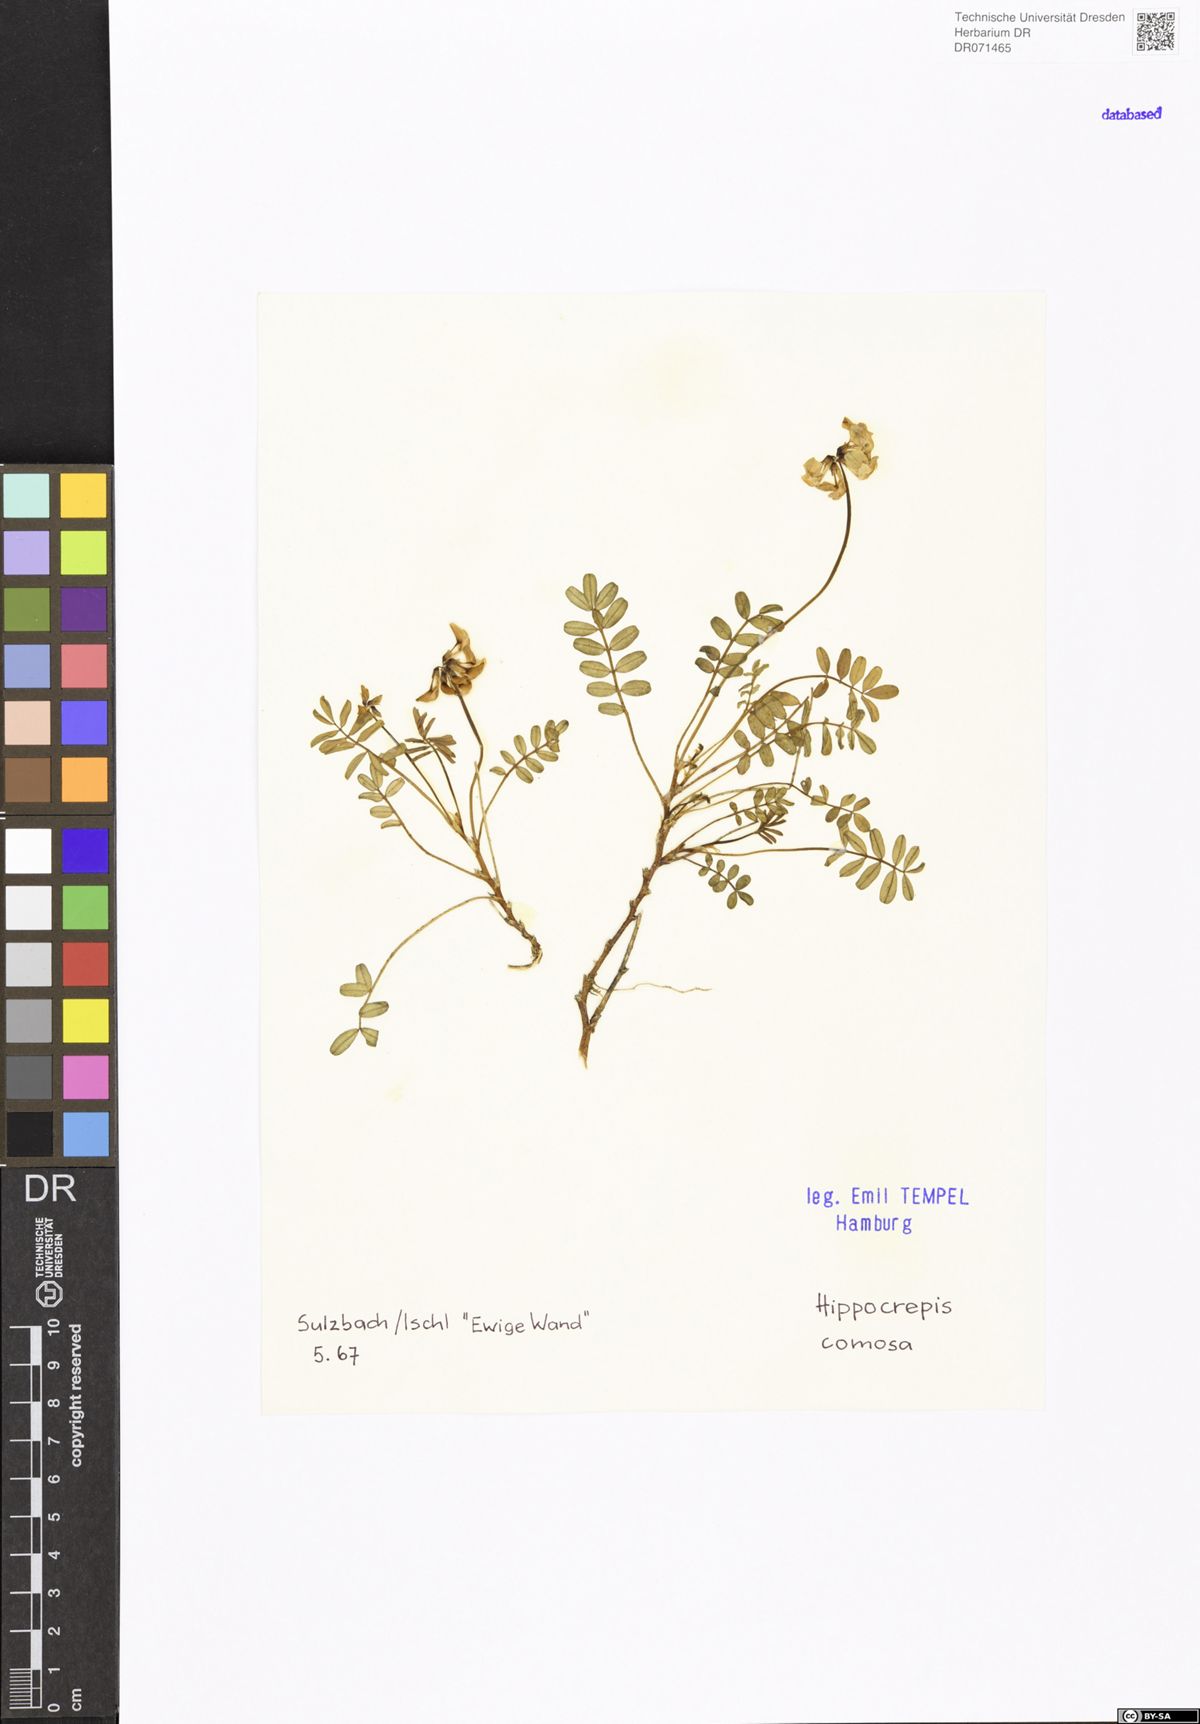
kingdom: Plantae
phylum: Tracheophyta
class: Magnoliopsida
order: Fabales
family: Fabaceae
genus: Hippocrepis
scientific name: Hippocrepis comosa
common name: Horseshoe vetch
